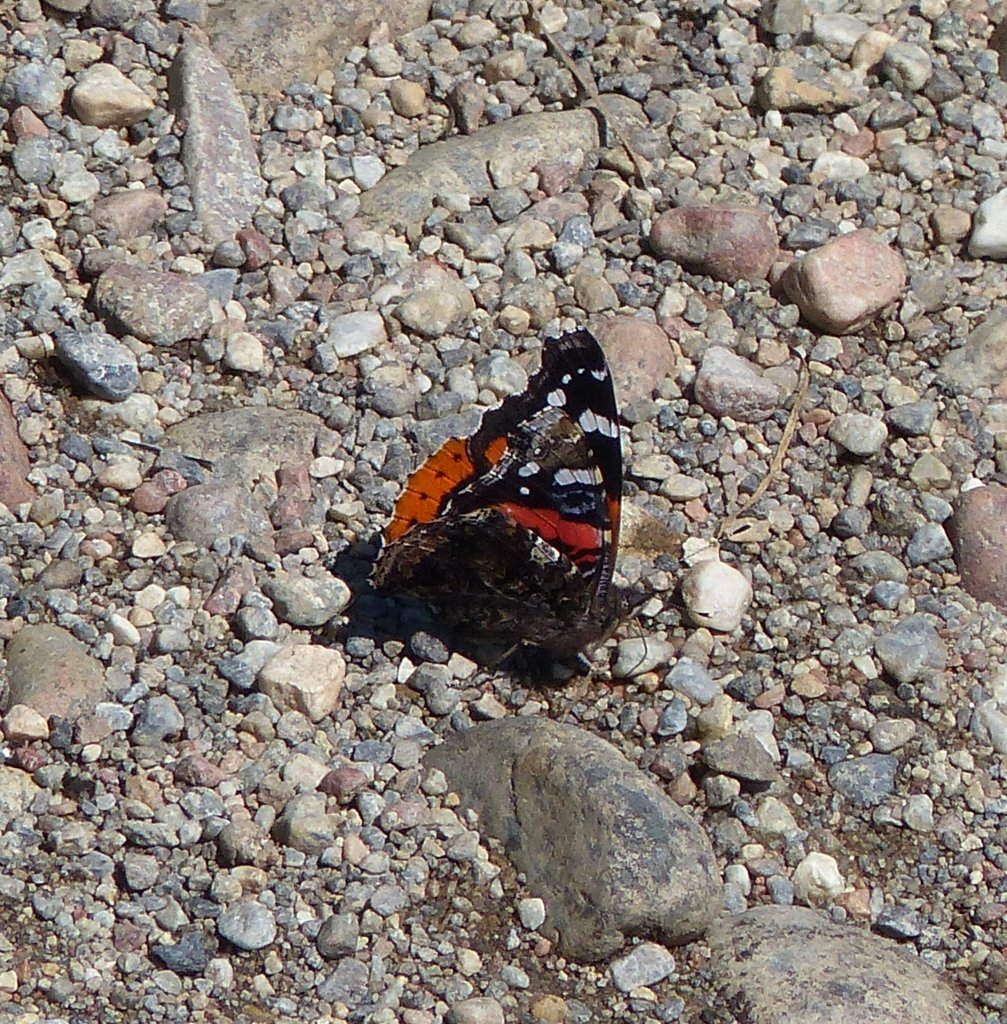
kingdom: Animalia
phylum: Arthropoda
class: Insecta
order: Lepidoptera
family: Nymphalidae
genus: Vanessa
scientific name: Vanessa atalanta
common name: Red Admiral
